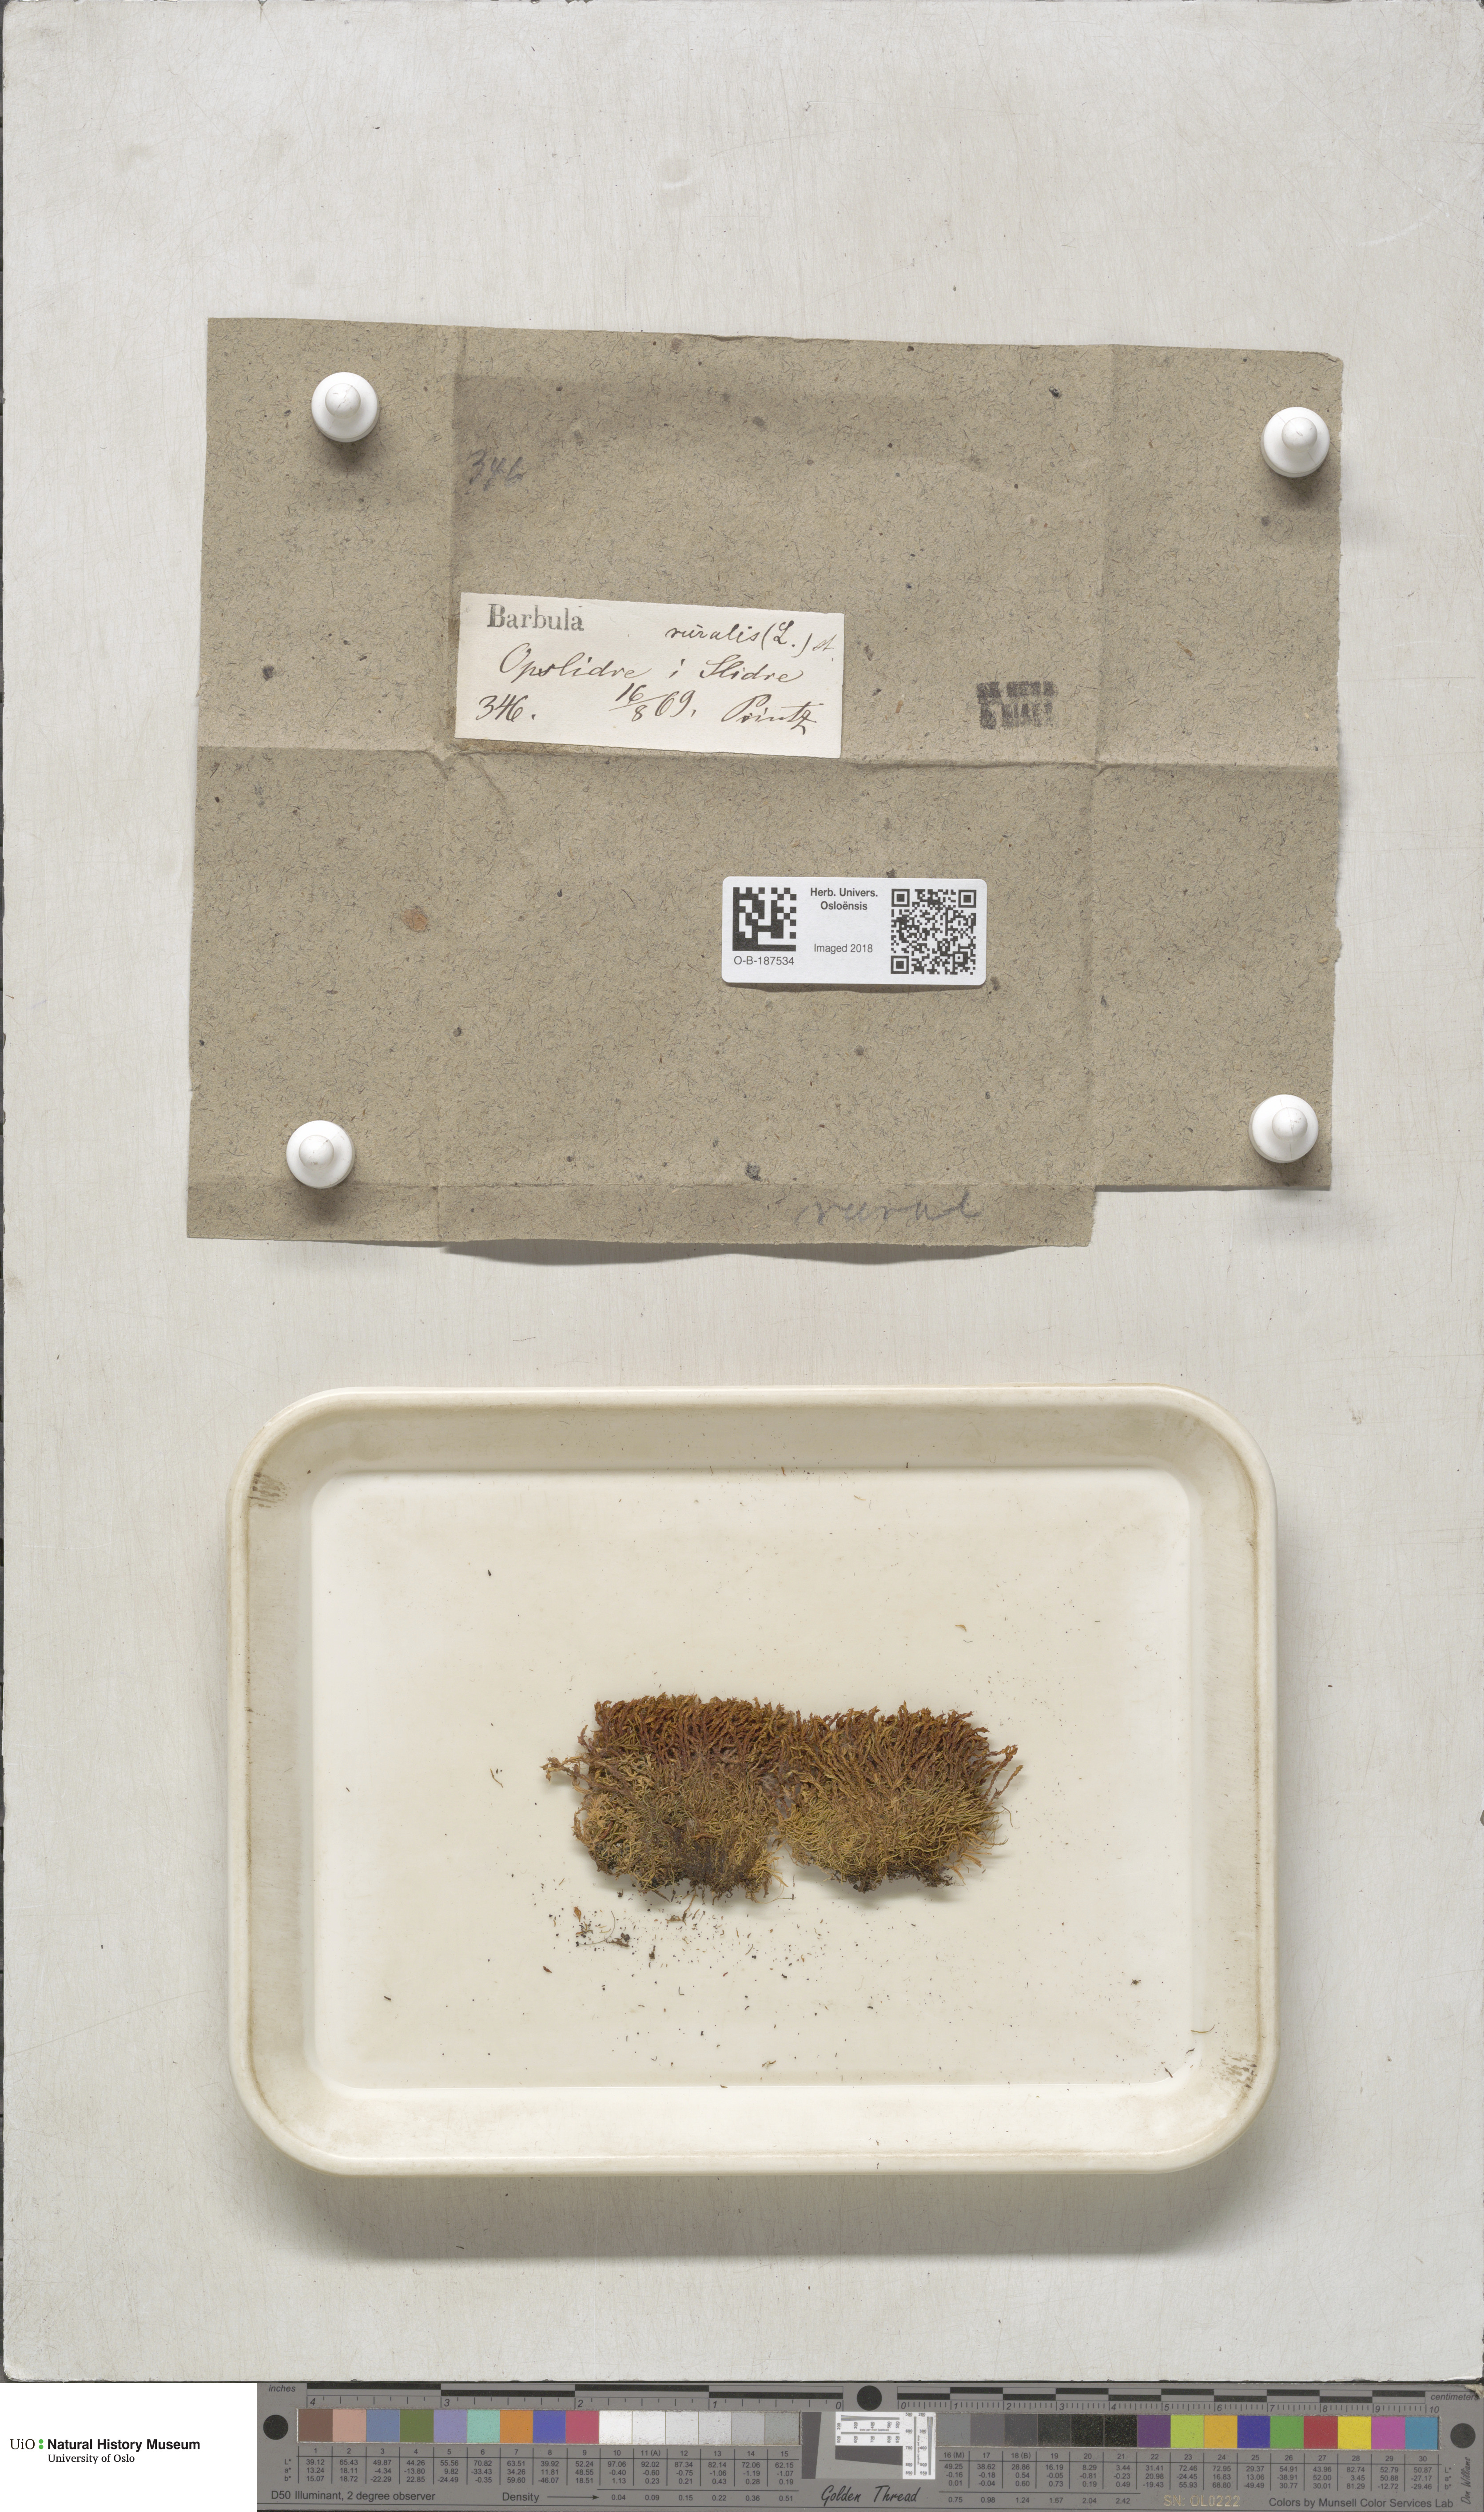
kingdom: Plantae
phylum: Bryophyta
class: Bryopsida
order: Pottiales
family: Pottiaceae
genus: Syntrichia
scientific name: Syntrichia ruralis
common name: Sidewalk screw moss
